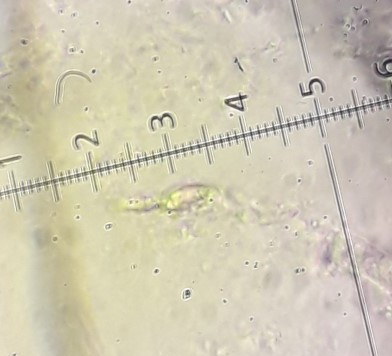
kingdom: Fungi
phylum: Basidiomycota
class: Agaricomycetes
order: Agaricales
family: Pseudoclitocybaceae
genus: Pseudoclitocybe
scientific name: Pseudoclitocybe expallens
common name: lille bægertragthat
